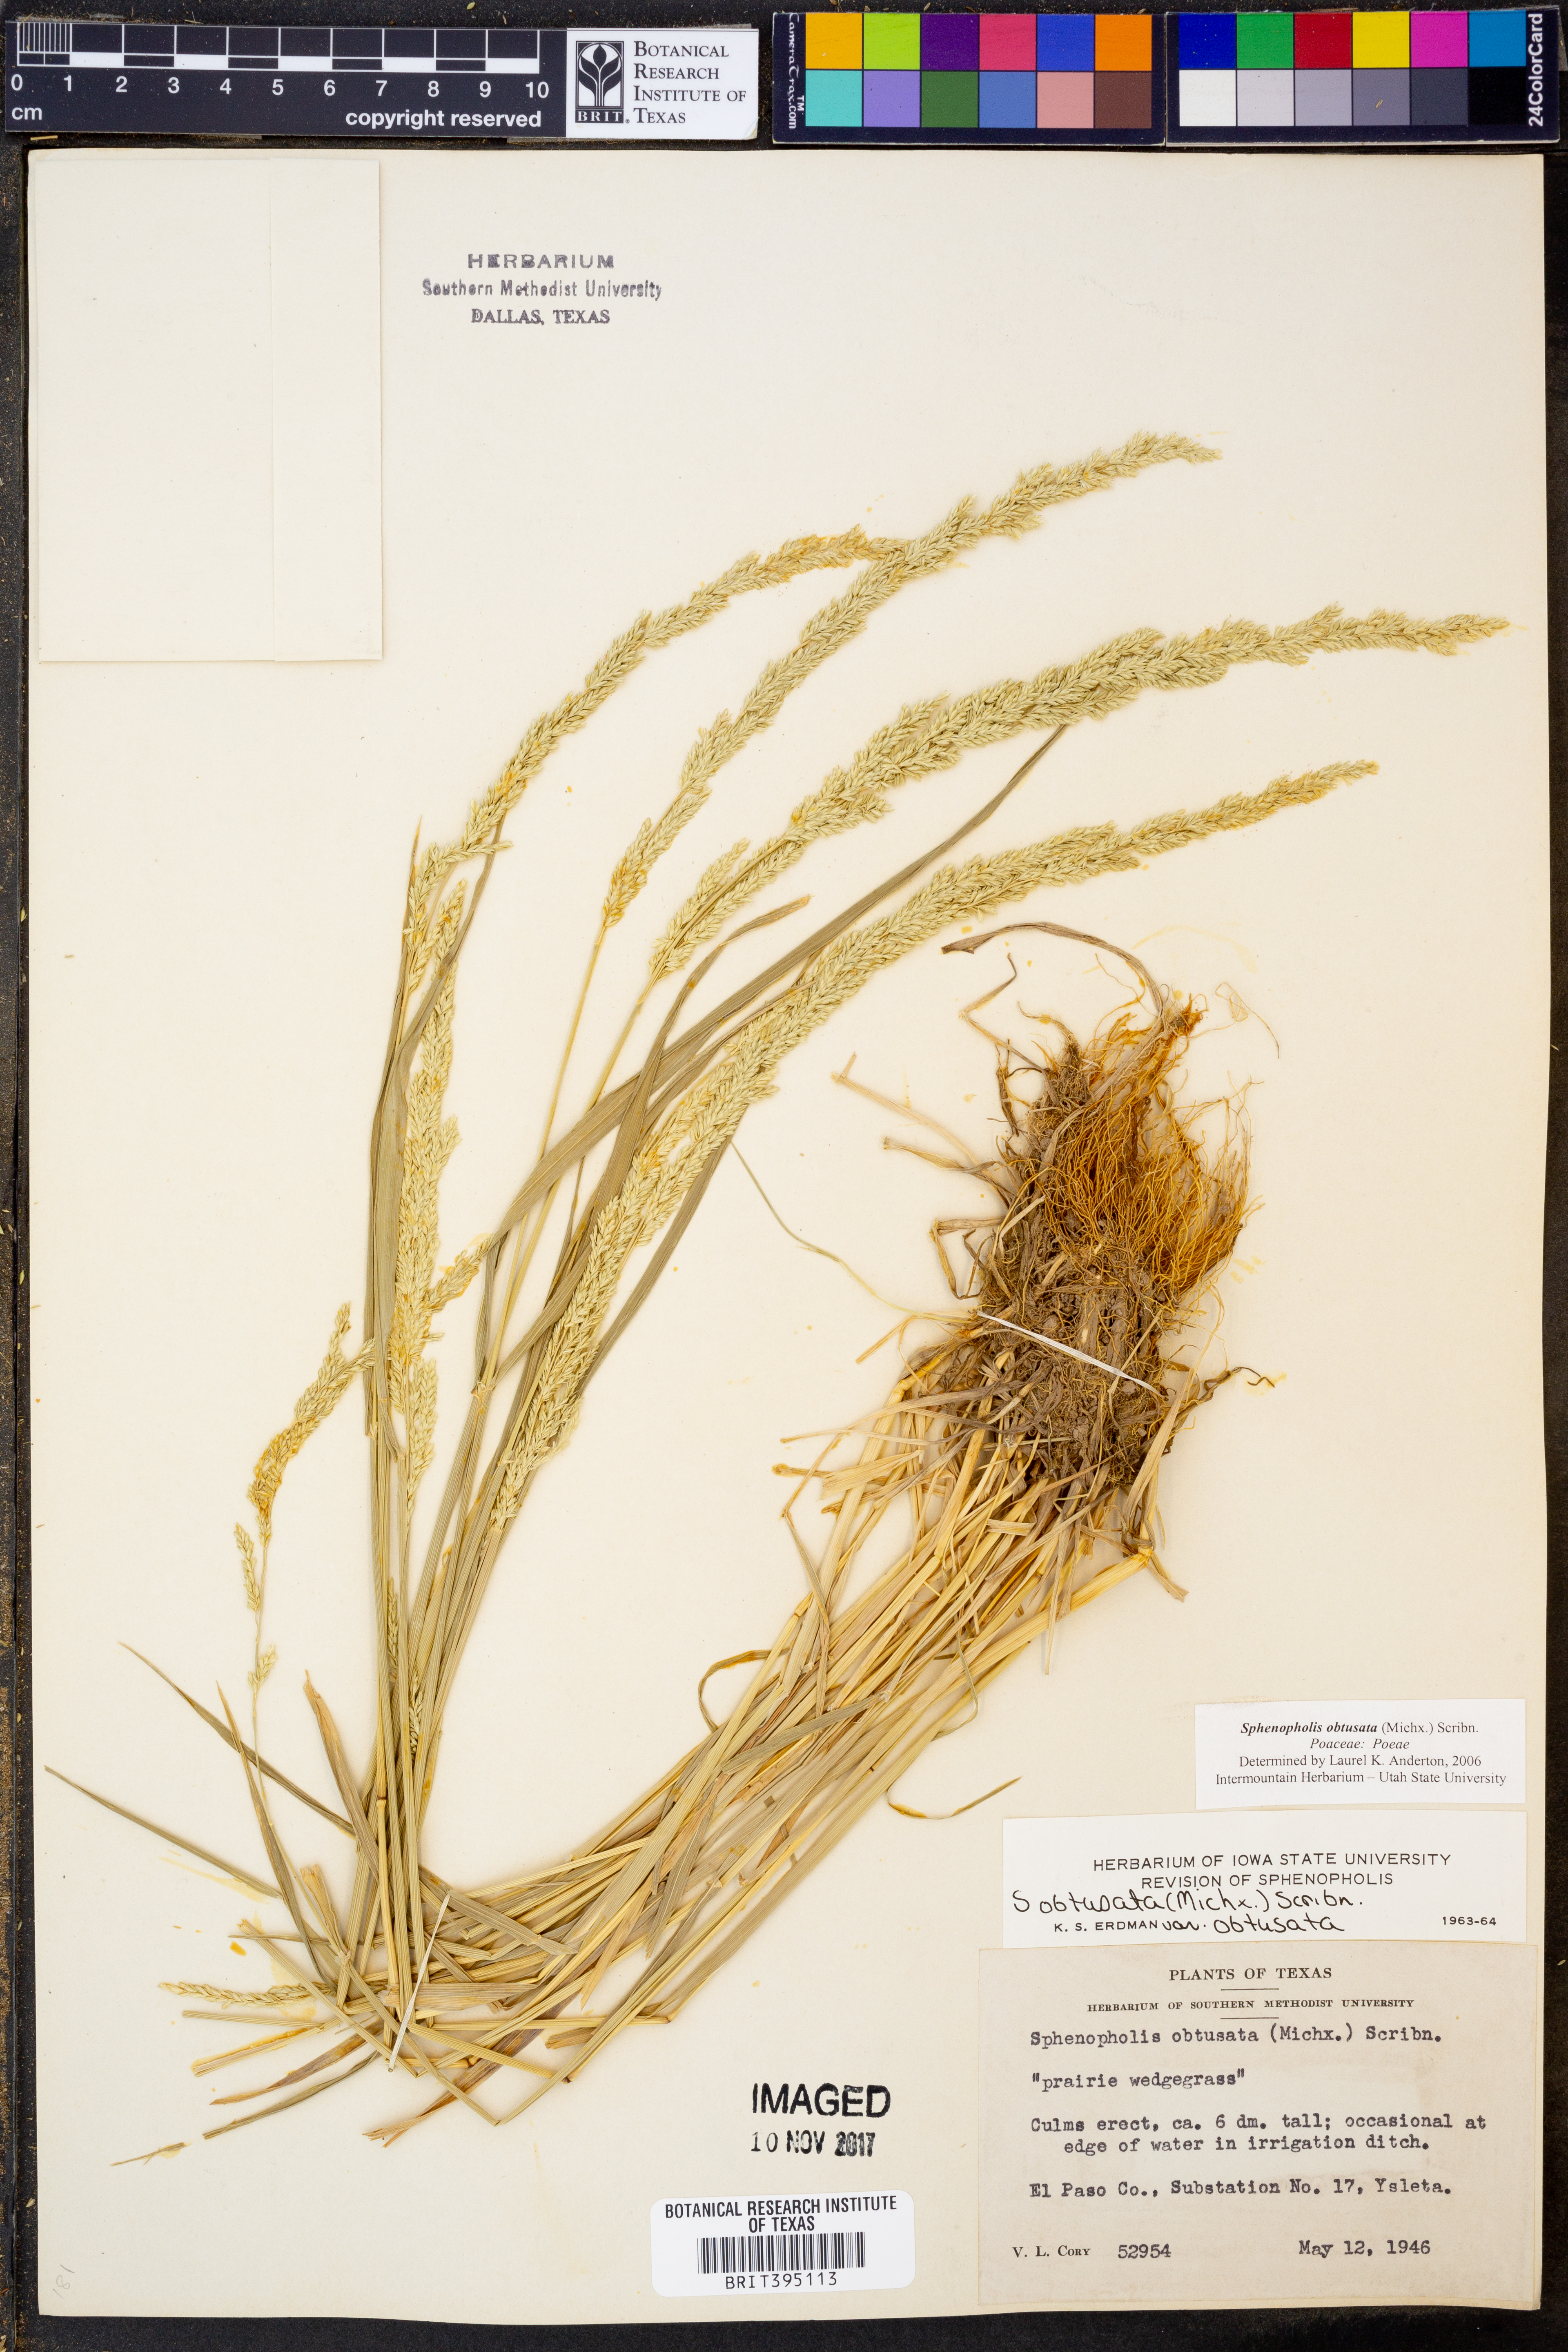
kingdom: Plantae
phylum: Tracheophyta
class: Liliopsida
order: Poales
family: Poaceae
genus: Sphenopholis
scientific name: Sphenopholis obtusata
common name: Prairie grass
